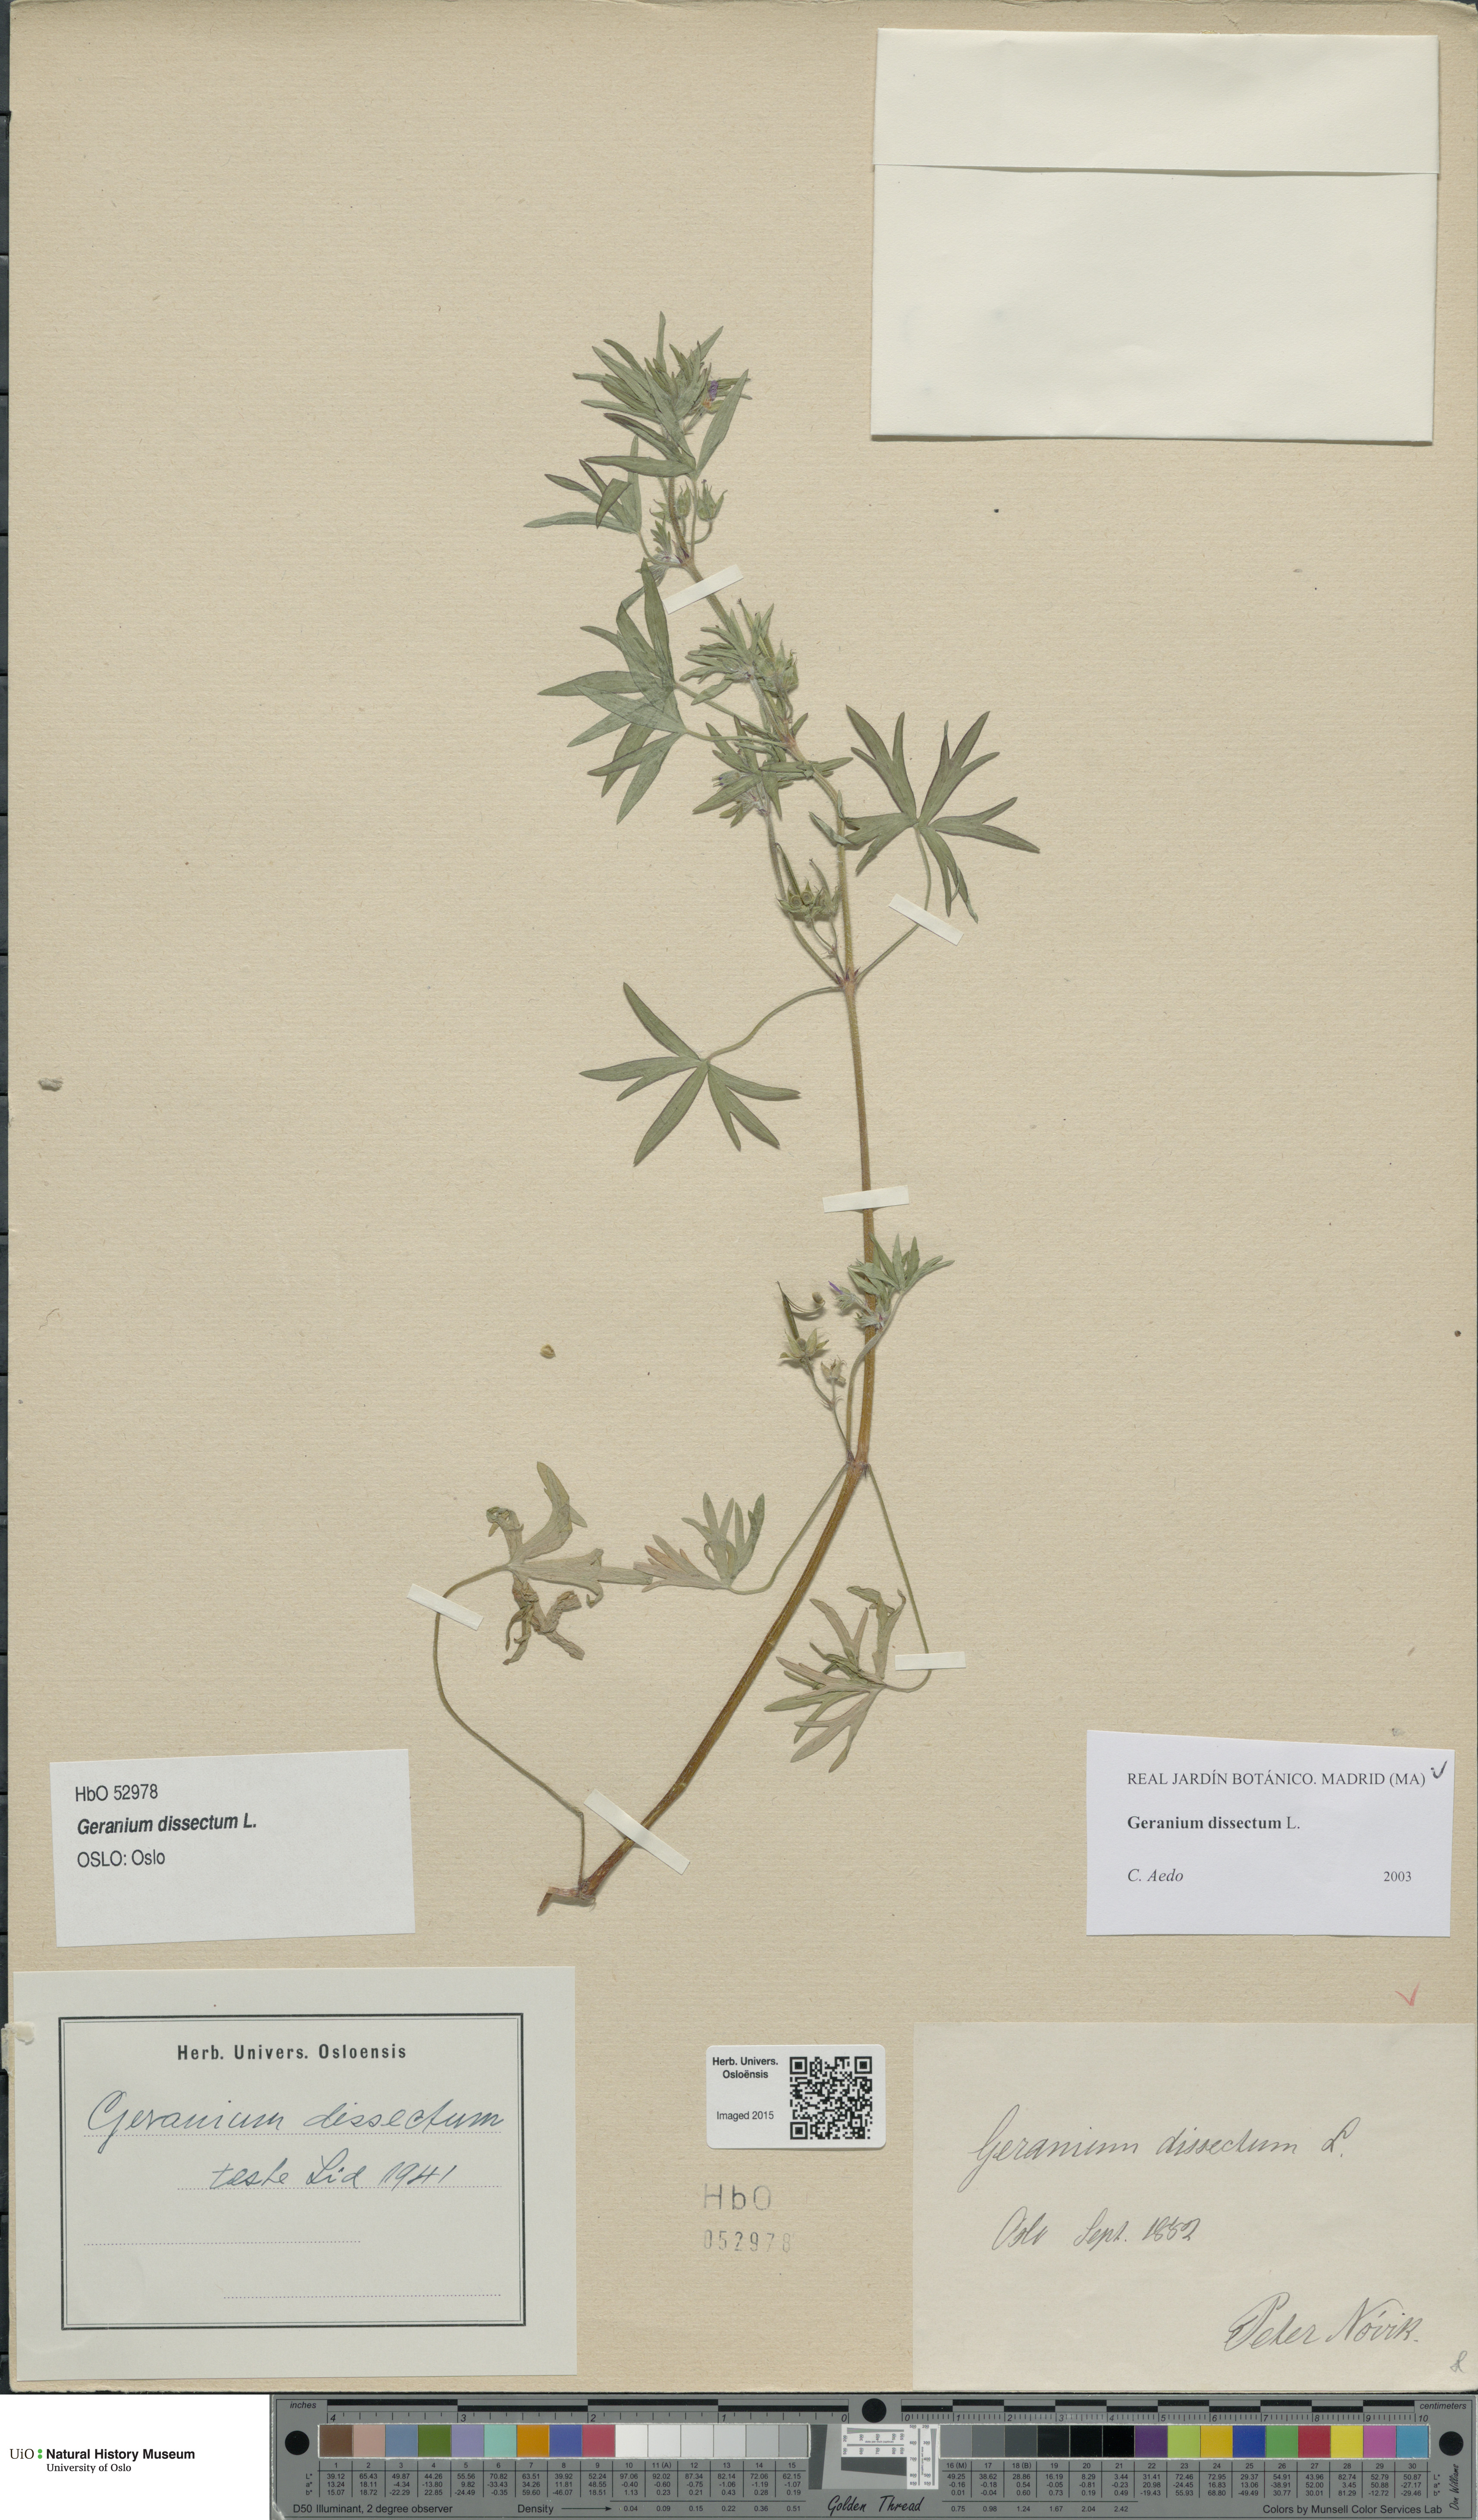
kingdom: Plantae
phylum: Tracheophyta
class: Magnoliopsida
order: Geraniales
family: Geraniaceae
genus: Geranium
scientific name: Geranium dissectum
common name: Cut-leaved crane's-bill
